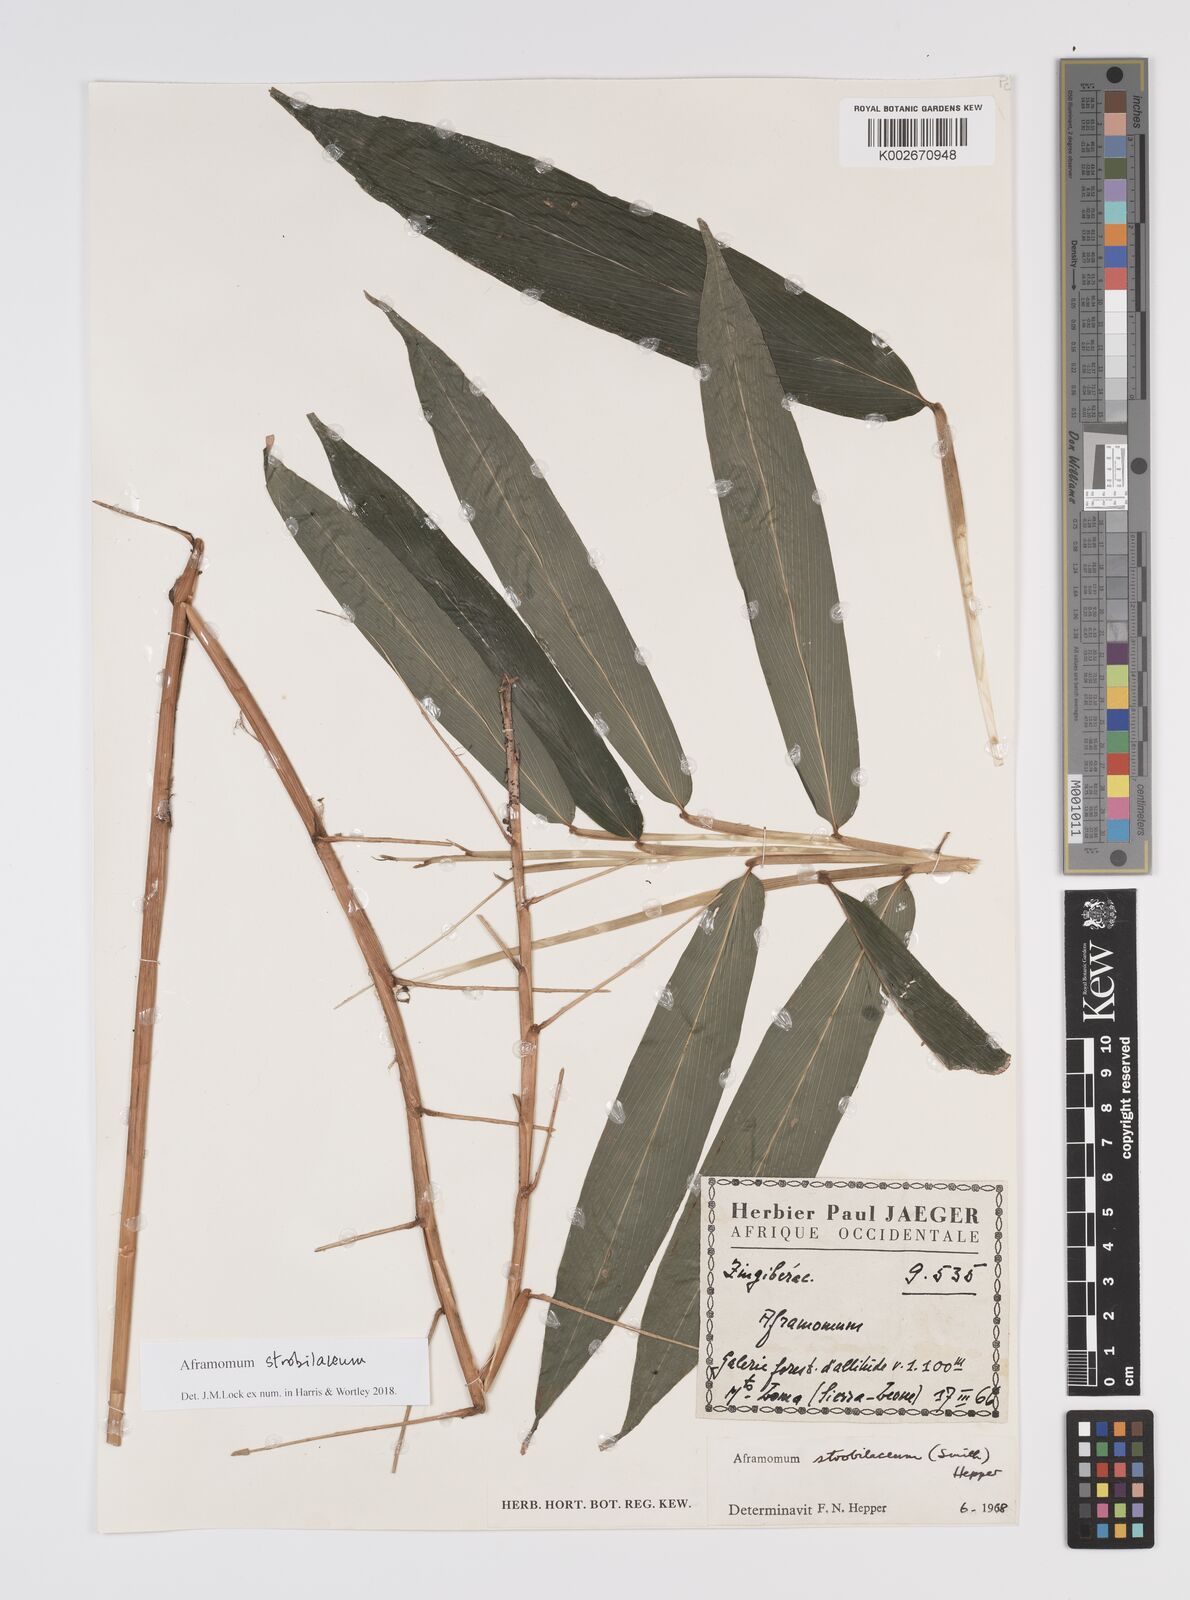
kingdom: Plantae
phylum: Tracheophyta
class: Liliopsida
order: Zingiberales
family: Zingiberaceae
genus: Aframomum
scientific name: Aframomum strobilaceum
